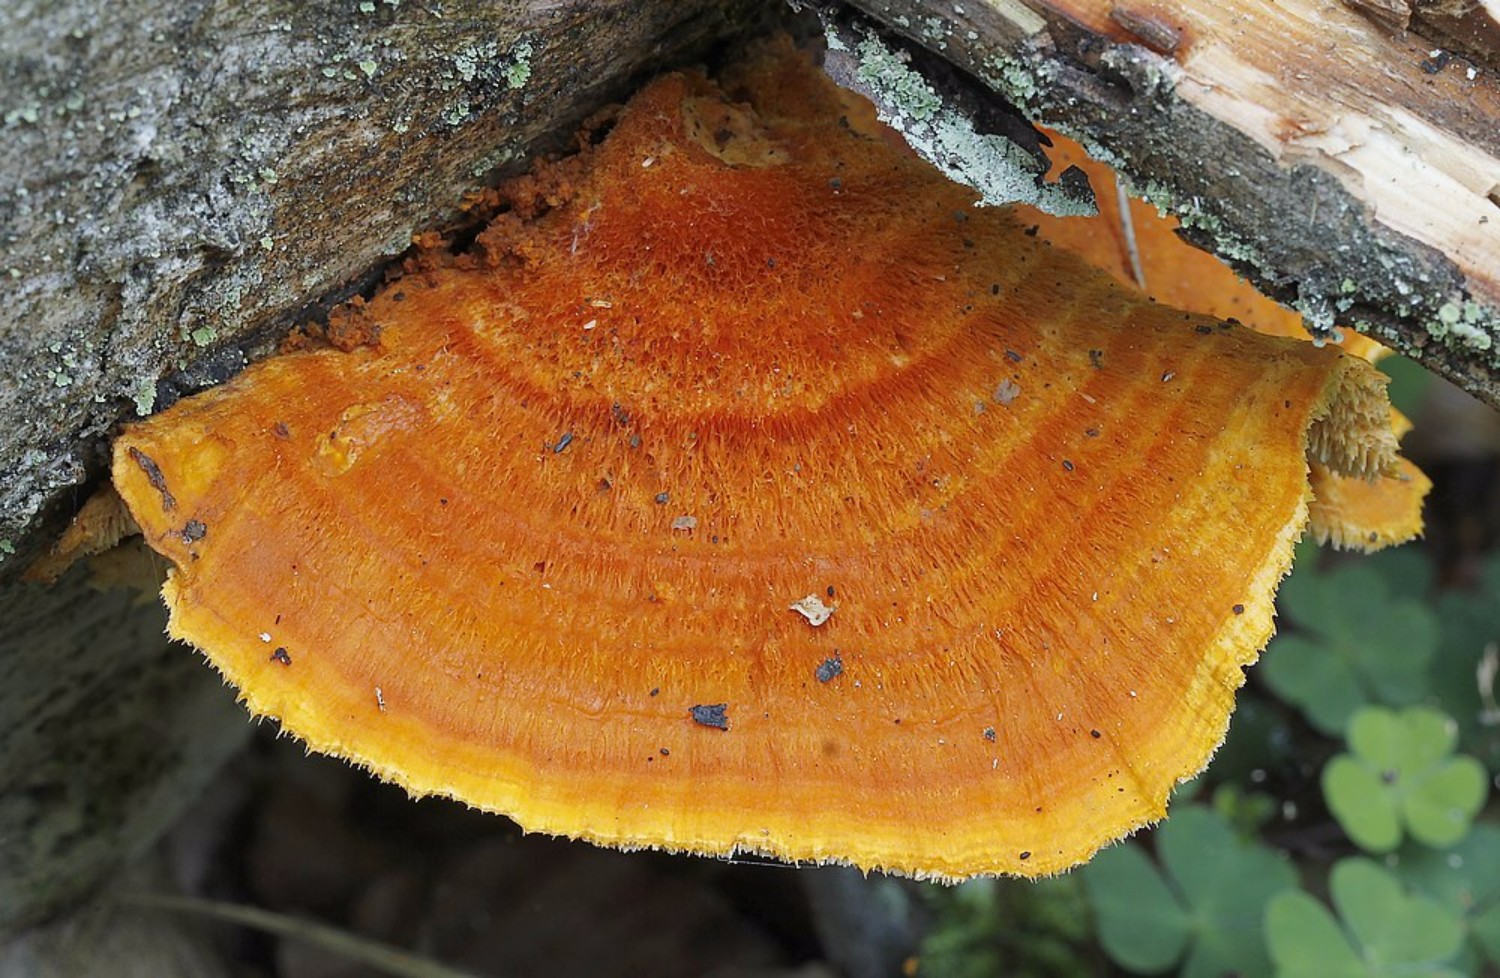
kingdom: Fungi
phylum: Basidiomycota
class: Agaricomycetes
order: Polyporales
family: Pycnoporellaceae
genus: Pycnoporellus
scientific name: Pycnoporellus fulgens
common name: flammeporesvamp
